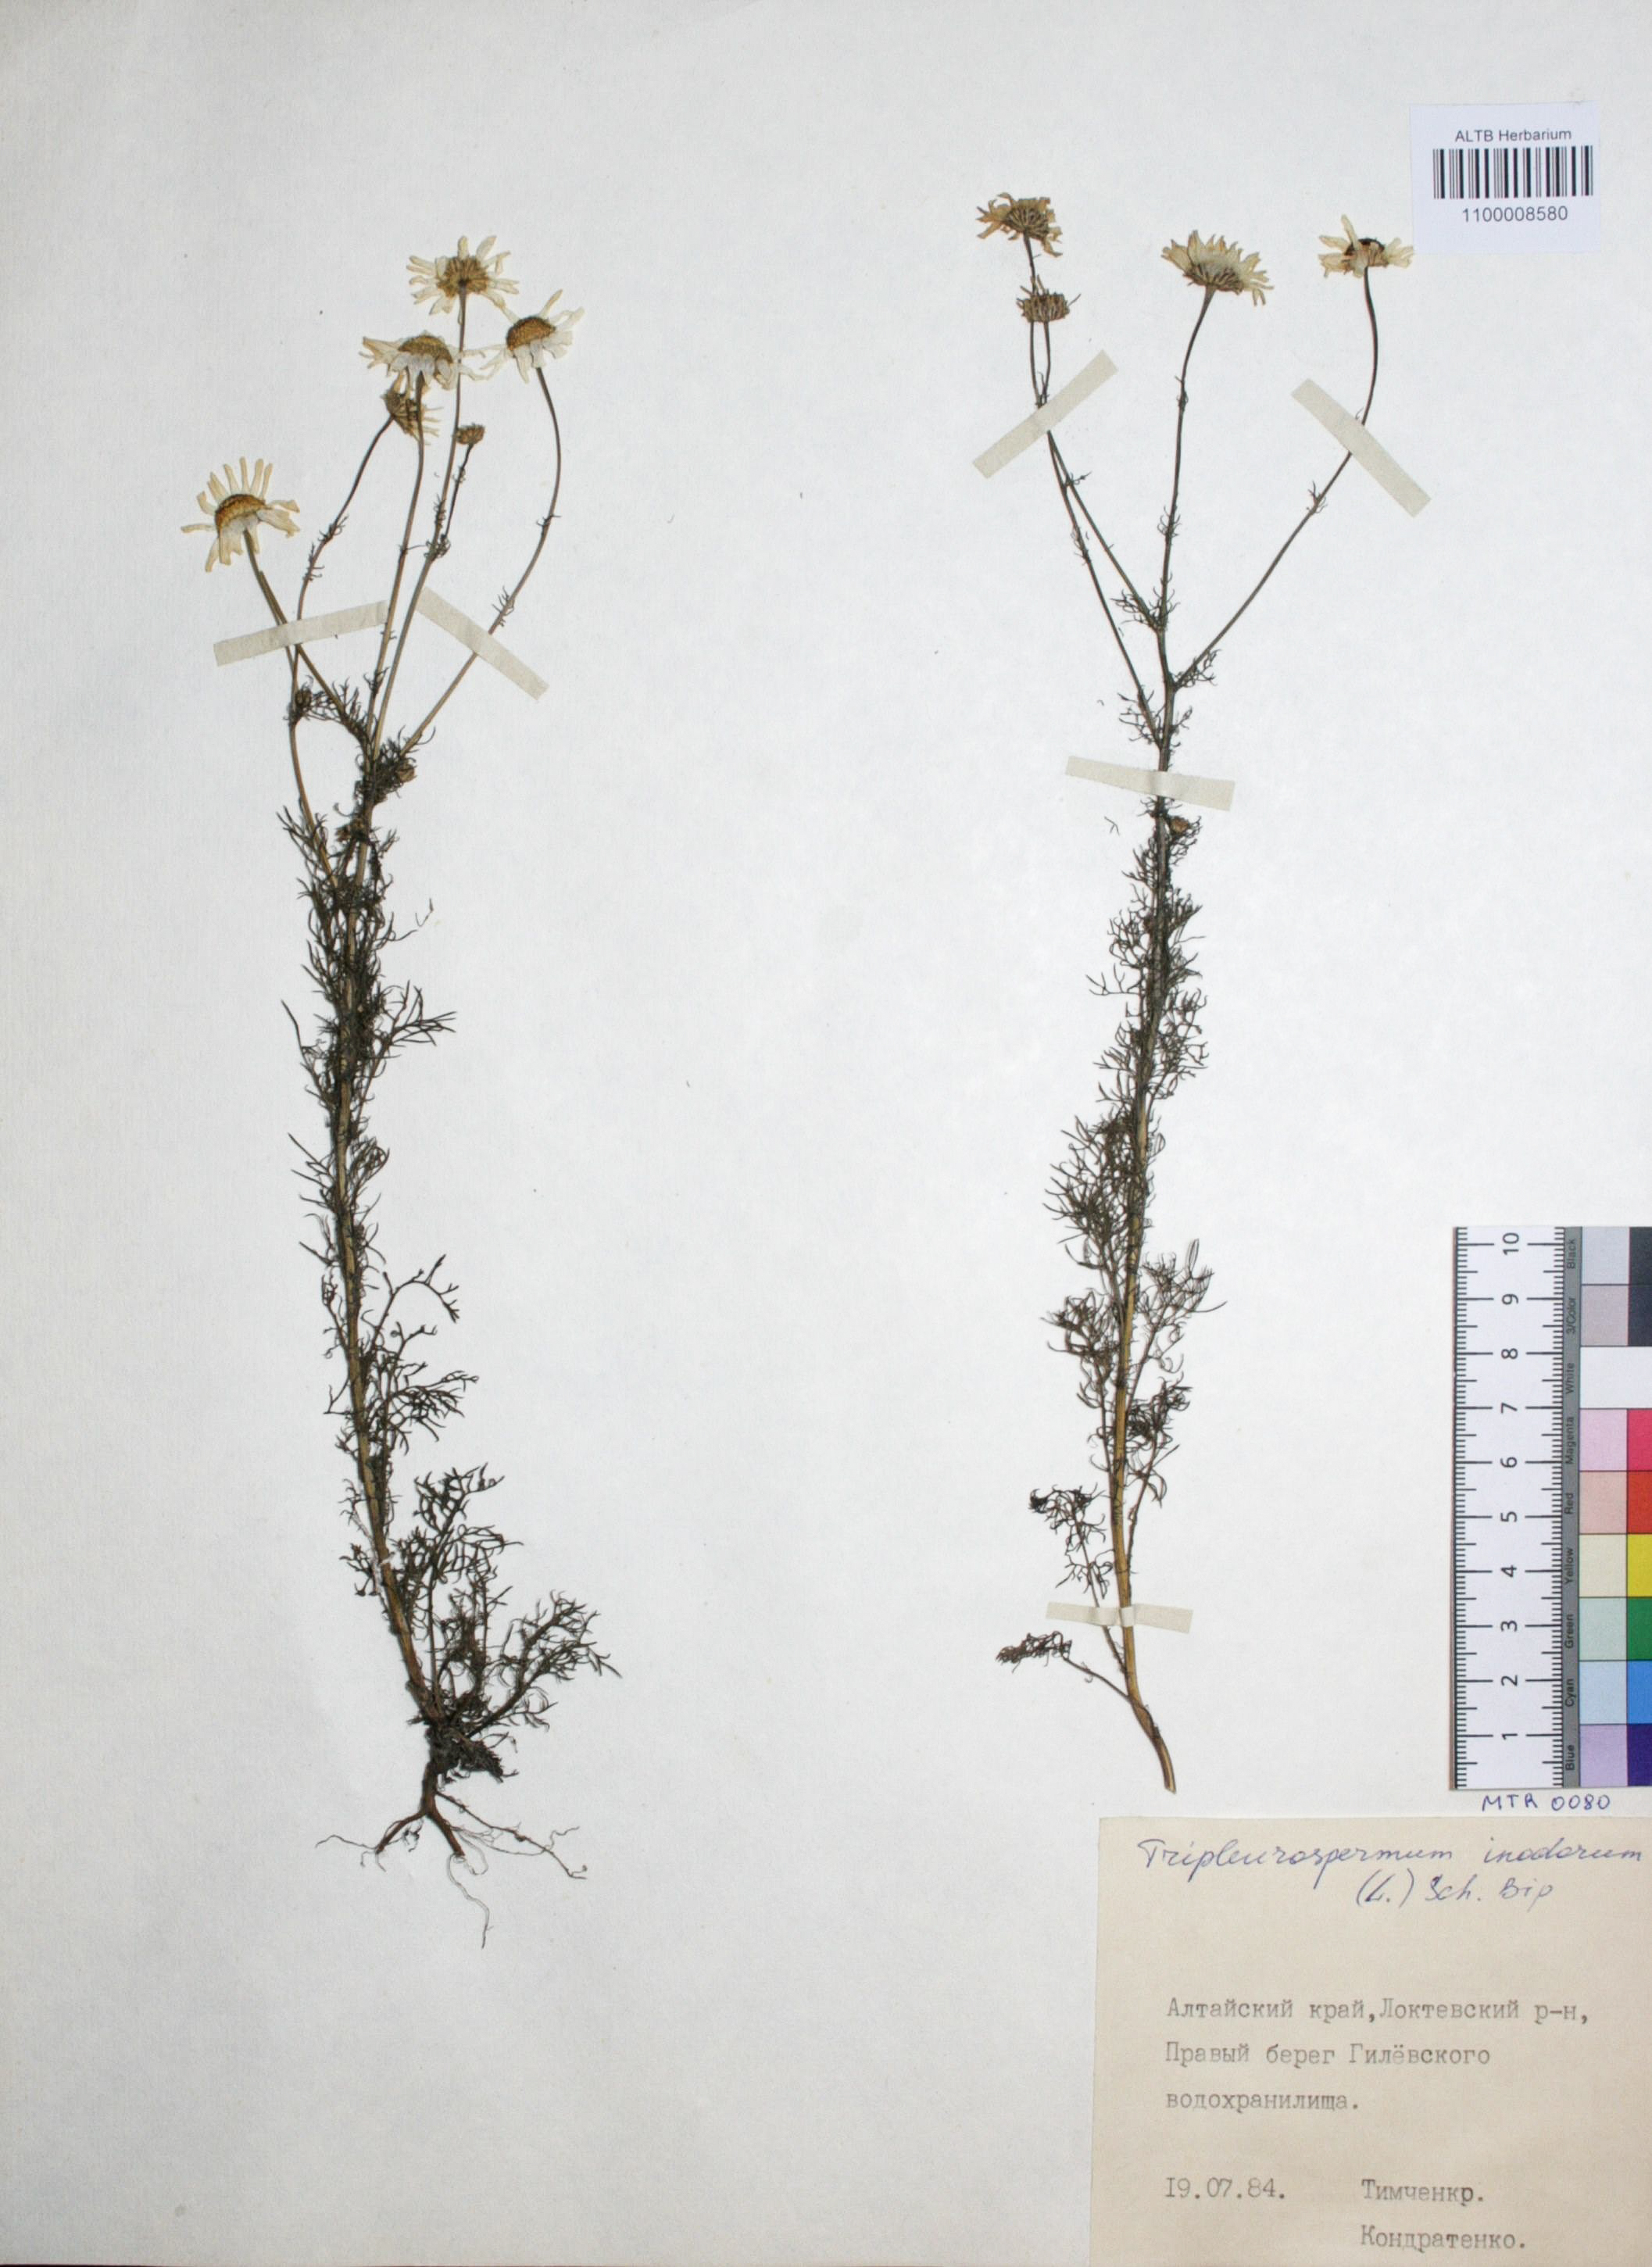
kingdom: Plantae
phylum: Tracheophyta
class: Magnoliopsida
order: Asterales
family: Asteraceae
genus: Tripleurospermum
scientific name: Tripleurospermum inodorum
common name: Scentless mayweed
